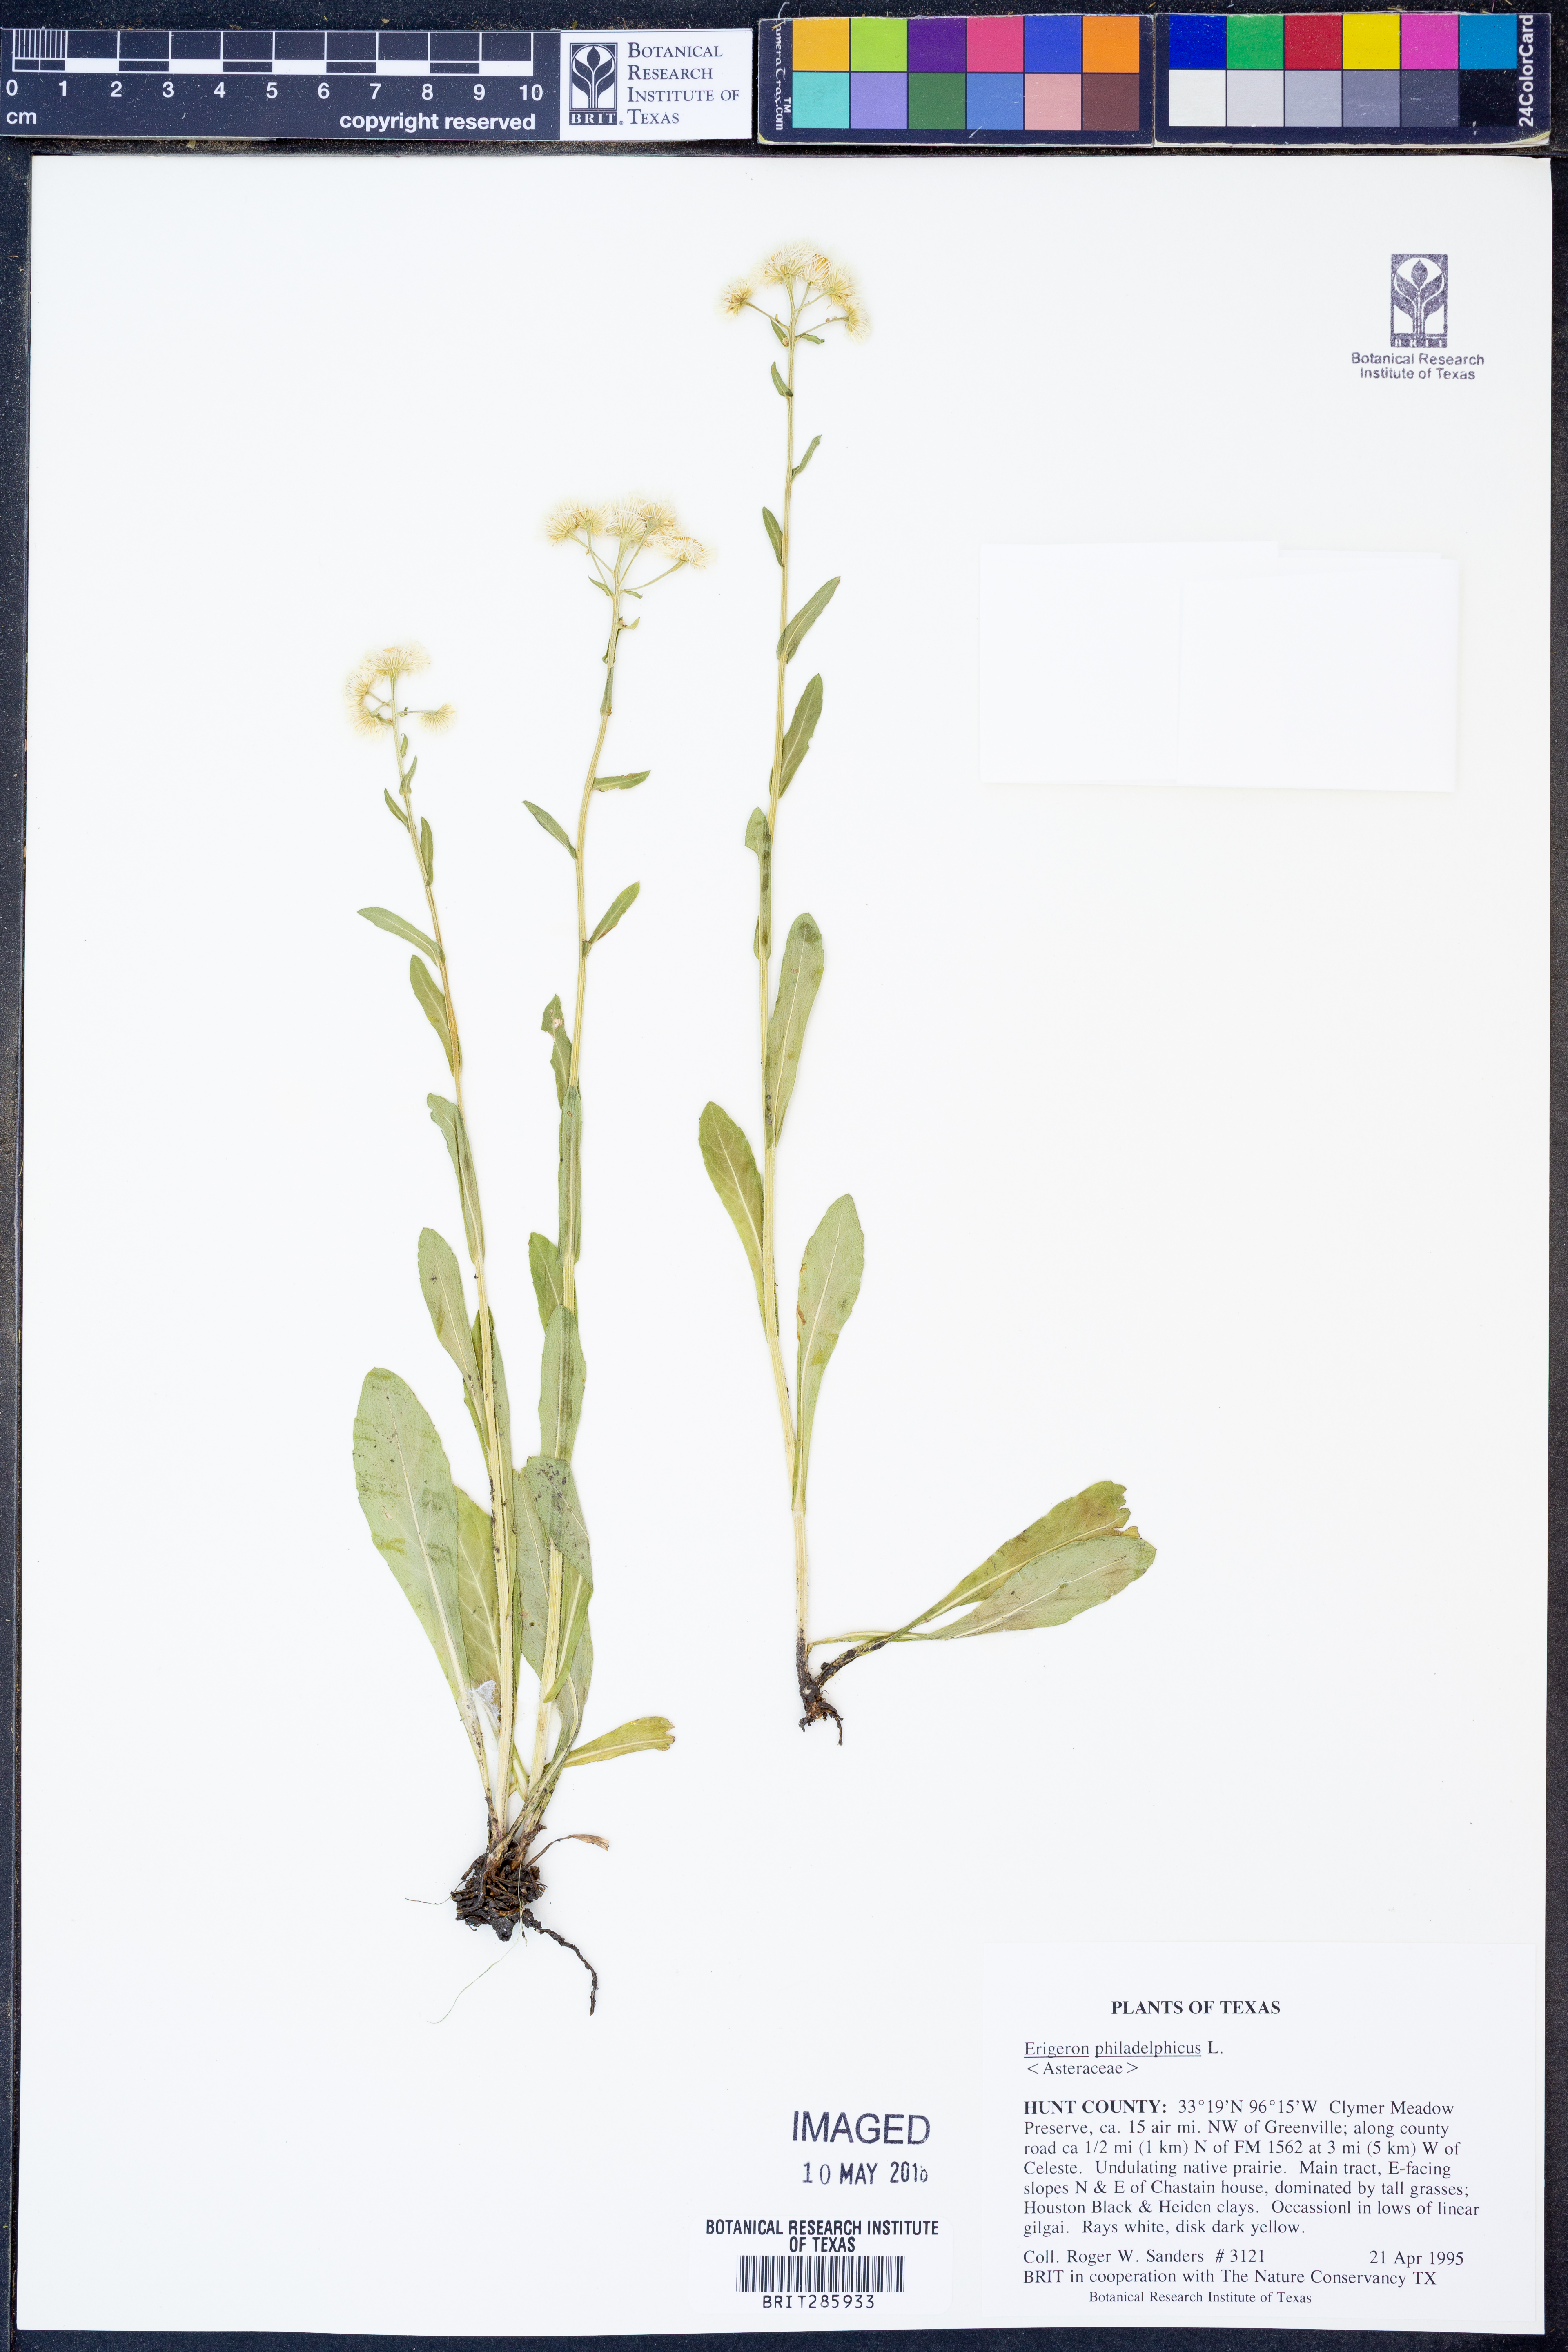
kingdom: Plantae
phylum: Tracheophyta
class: Magnoliopsida
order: Asterales
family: Asteraceae
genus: Erigeron
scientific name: Erigeron philadelphicus
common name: Robin's-plantain
